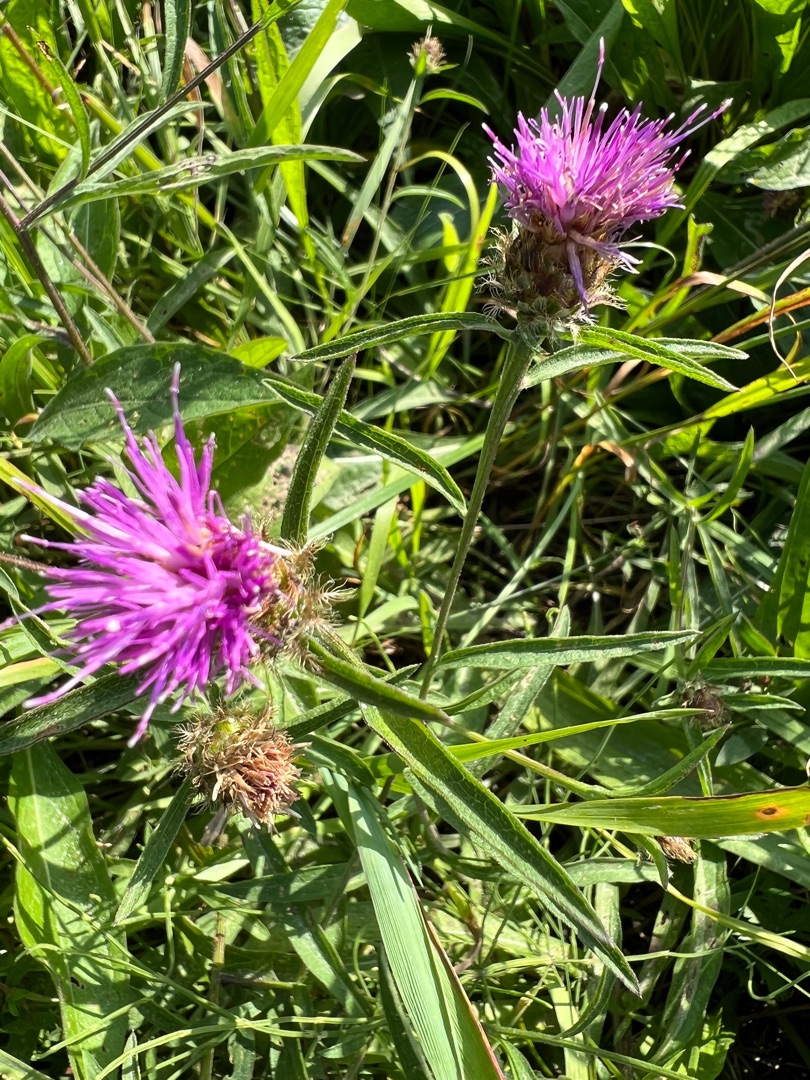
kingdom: Plantae
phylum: Tracheophyta
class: Magnoliopsida
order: Asterales
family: Asteraceae
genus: Centaurea
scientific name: Centaurea
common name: Sorthoved-knopurt × fjer-knopurt
